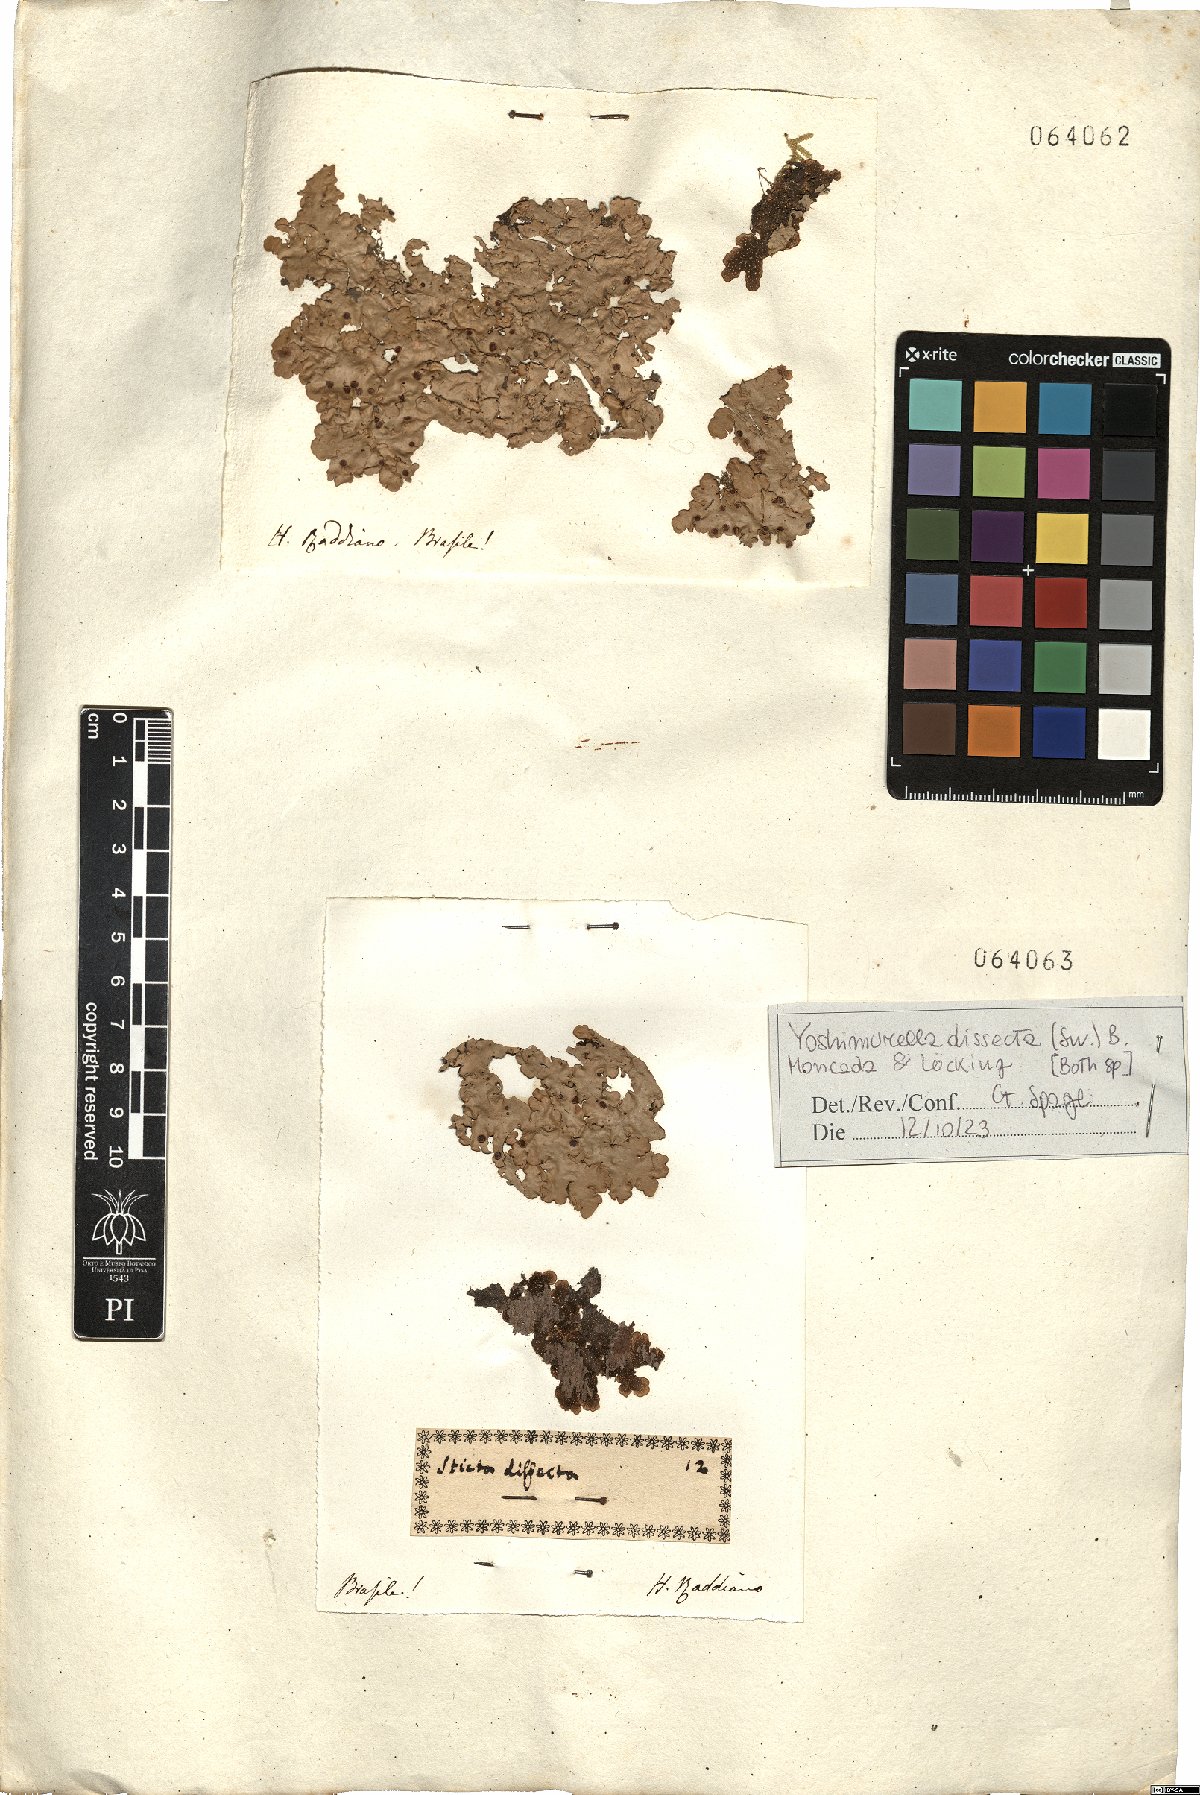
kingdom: Fungi
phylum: Ascomycota
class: Lecanoromycetes
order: Peltigerales
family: Lobariaceae
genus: Yoshimuriella
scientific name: Yoshimuriella dissecta
